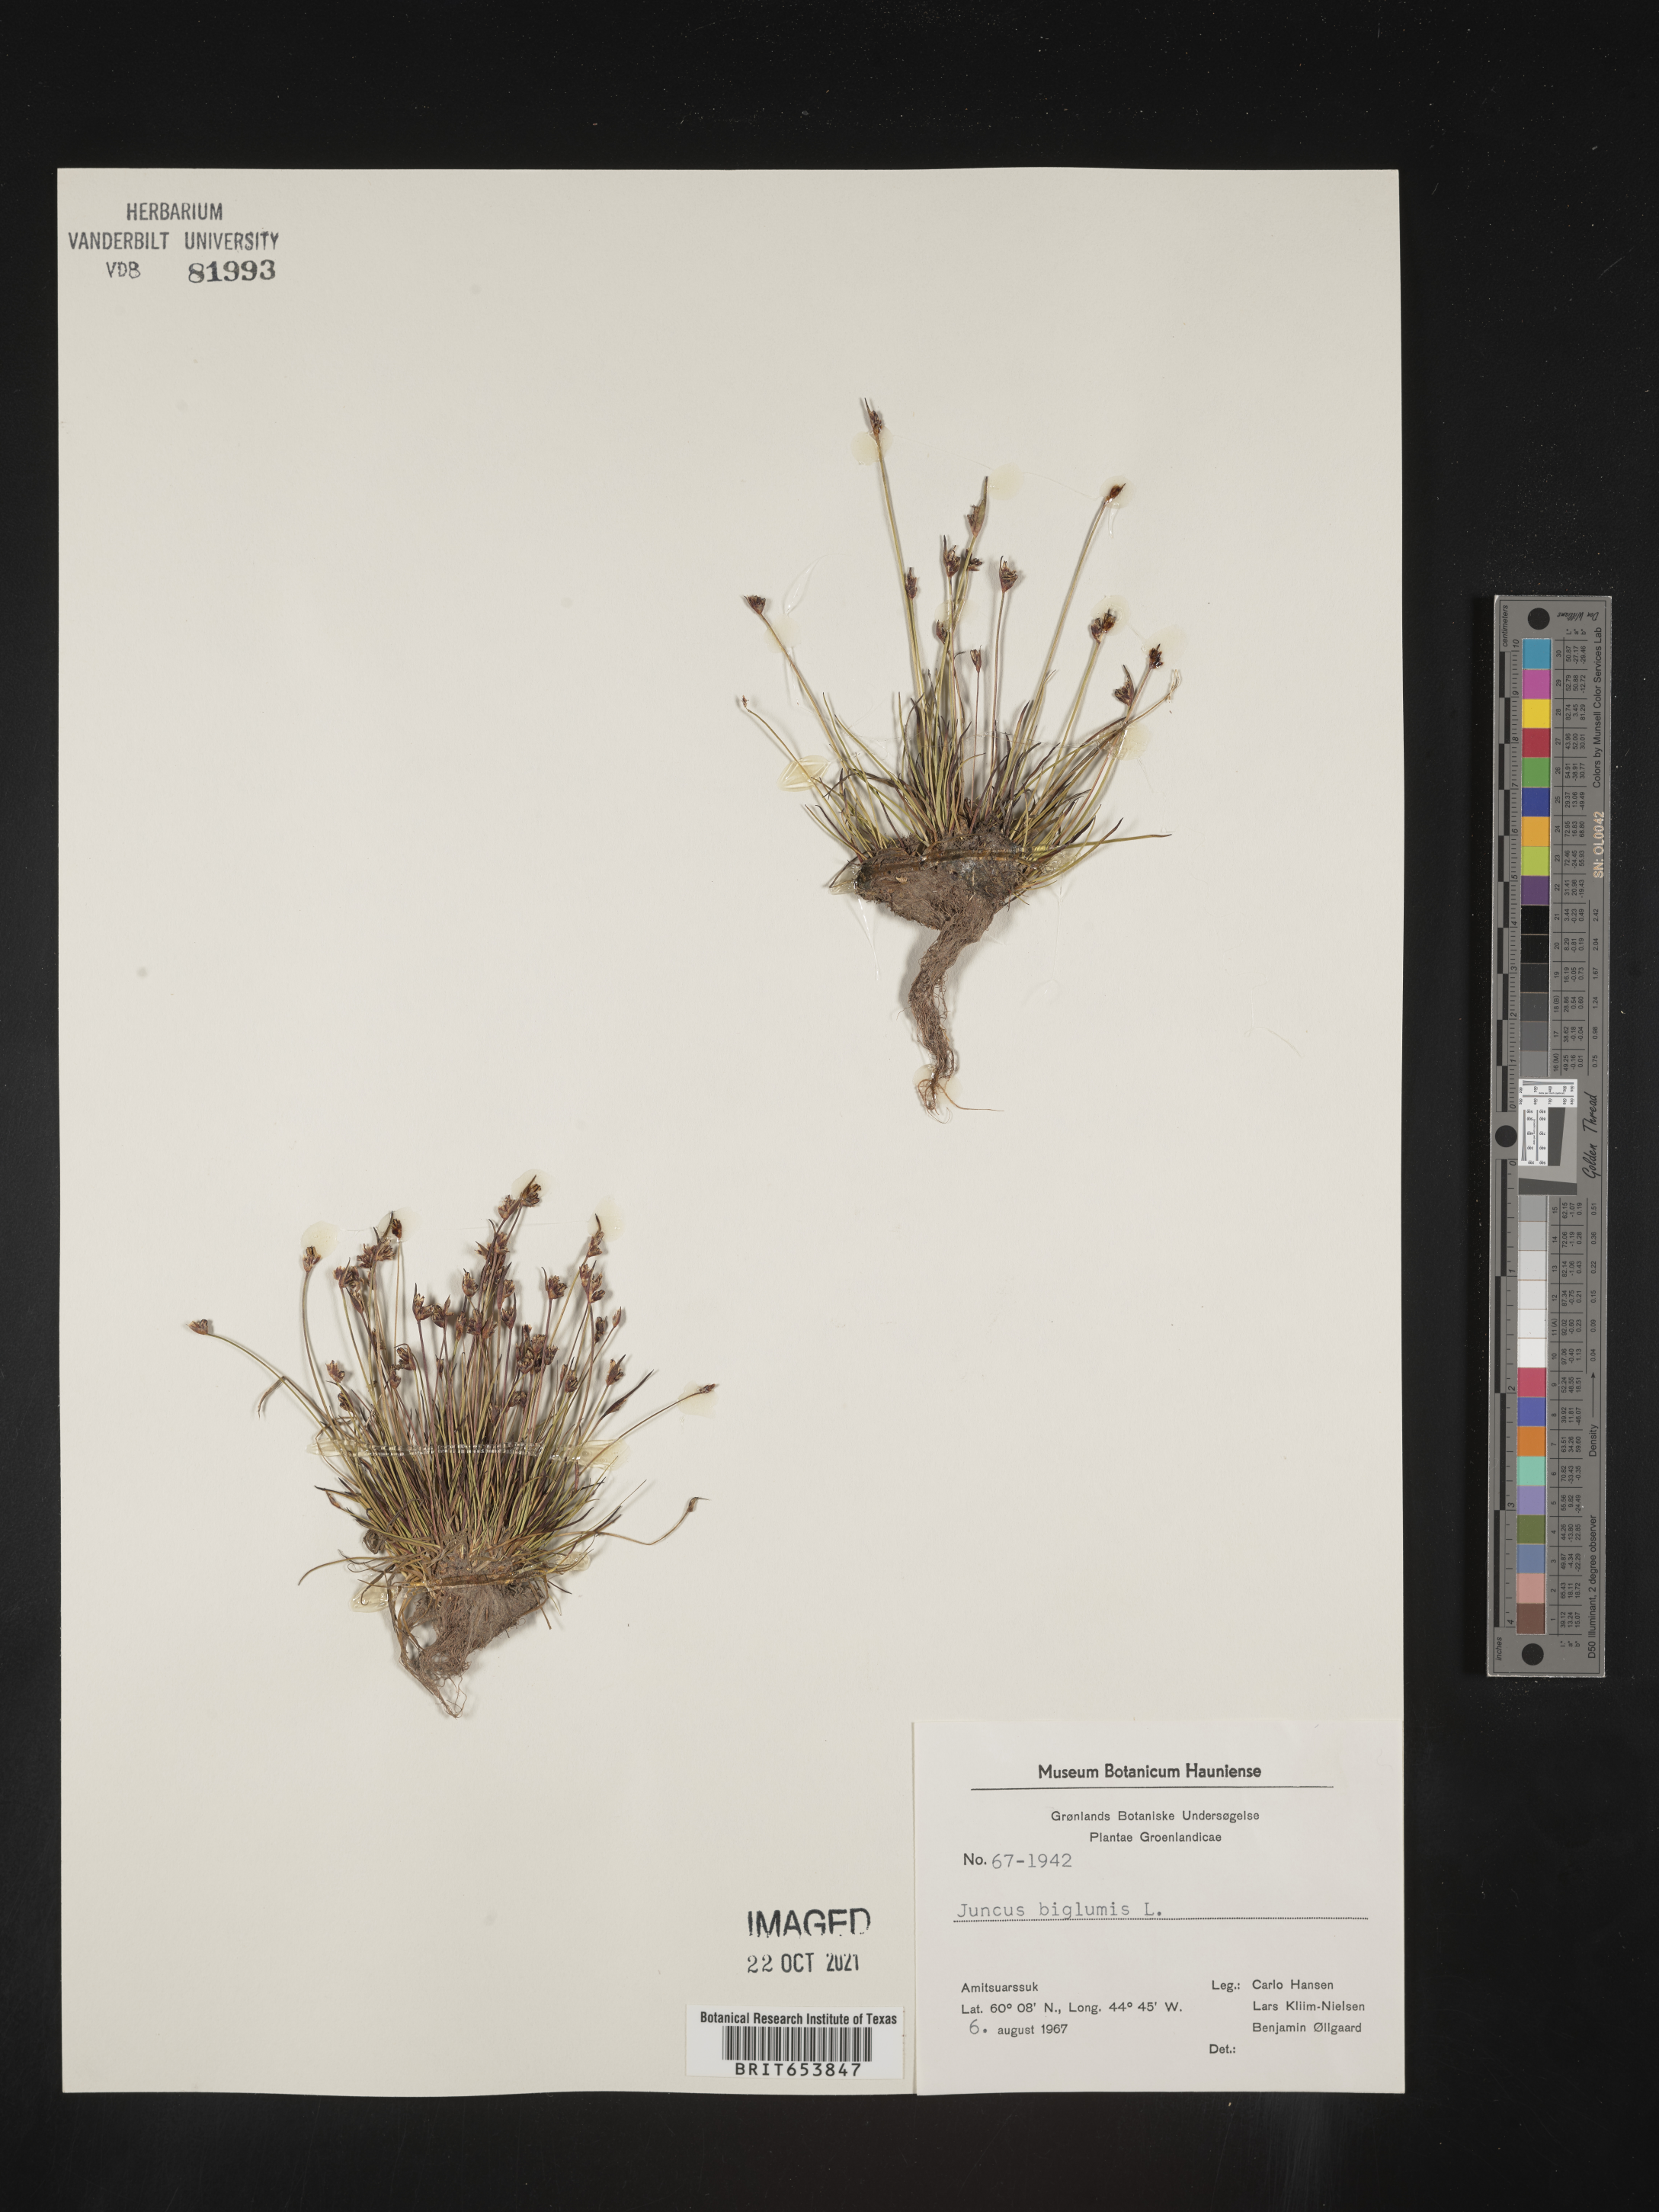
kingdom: Plantae
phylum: Tracheophyta
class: Liliopsida
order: Poales
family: Juncaceae
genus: Juncus
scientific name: Juncus
